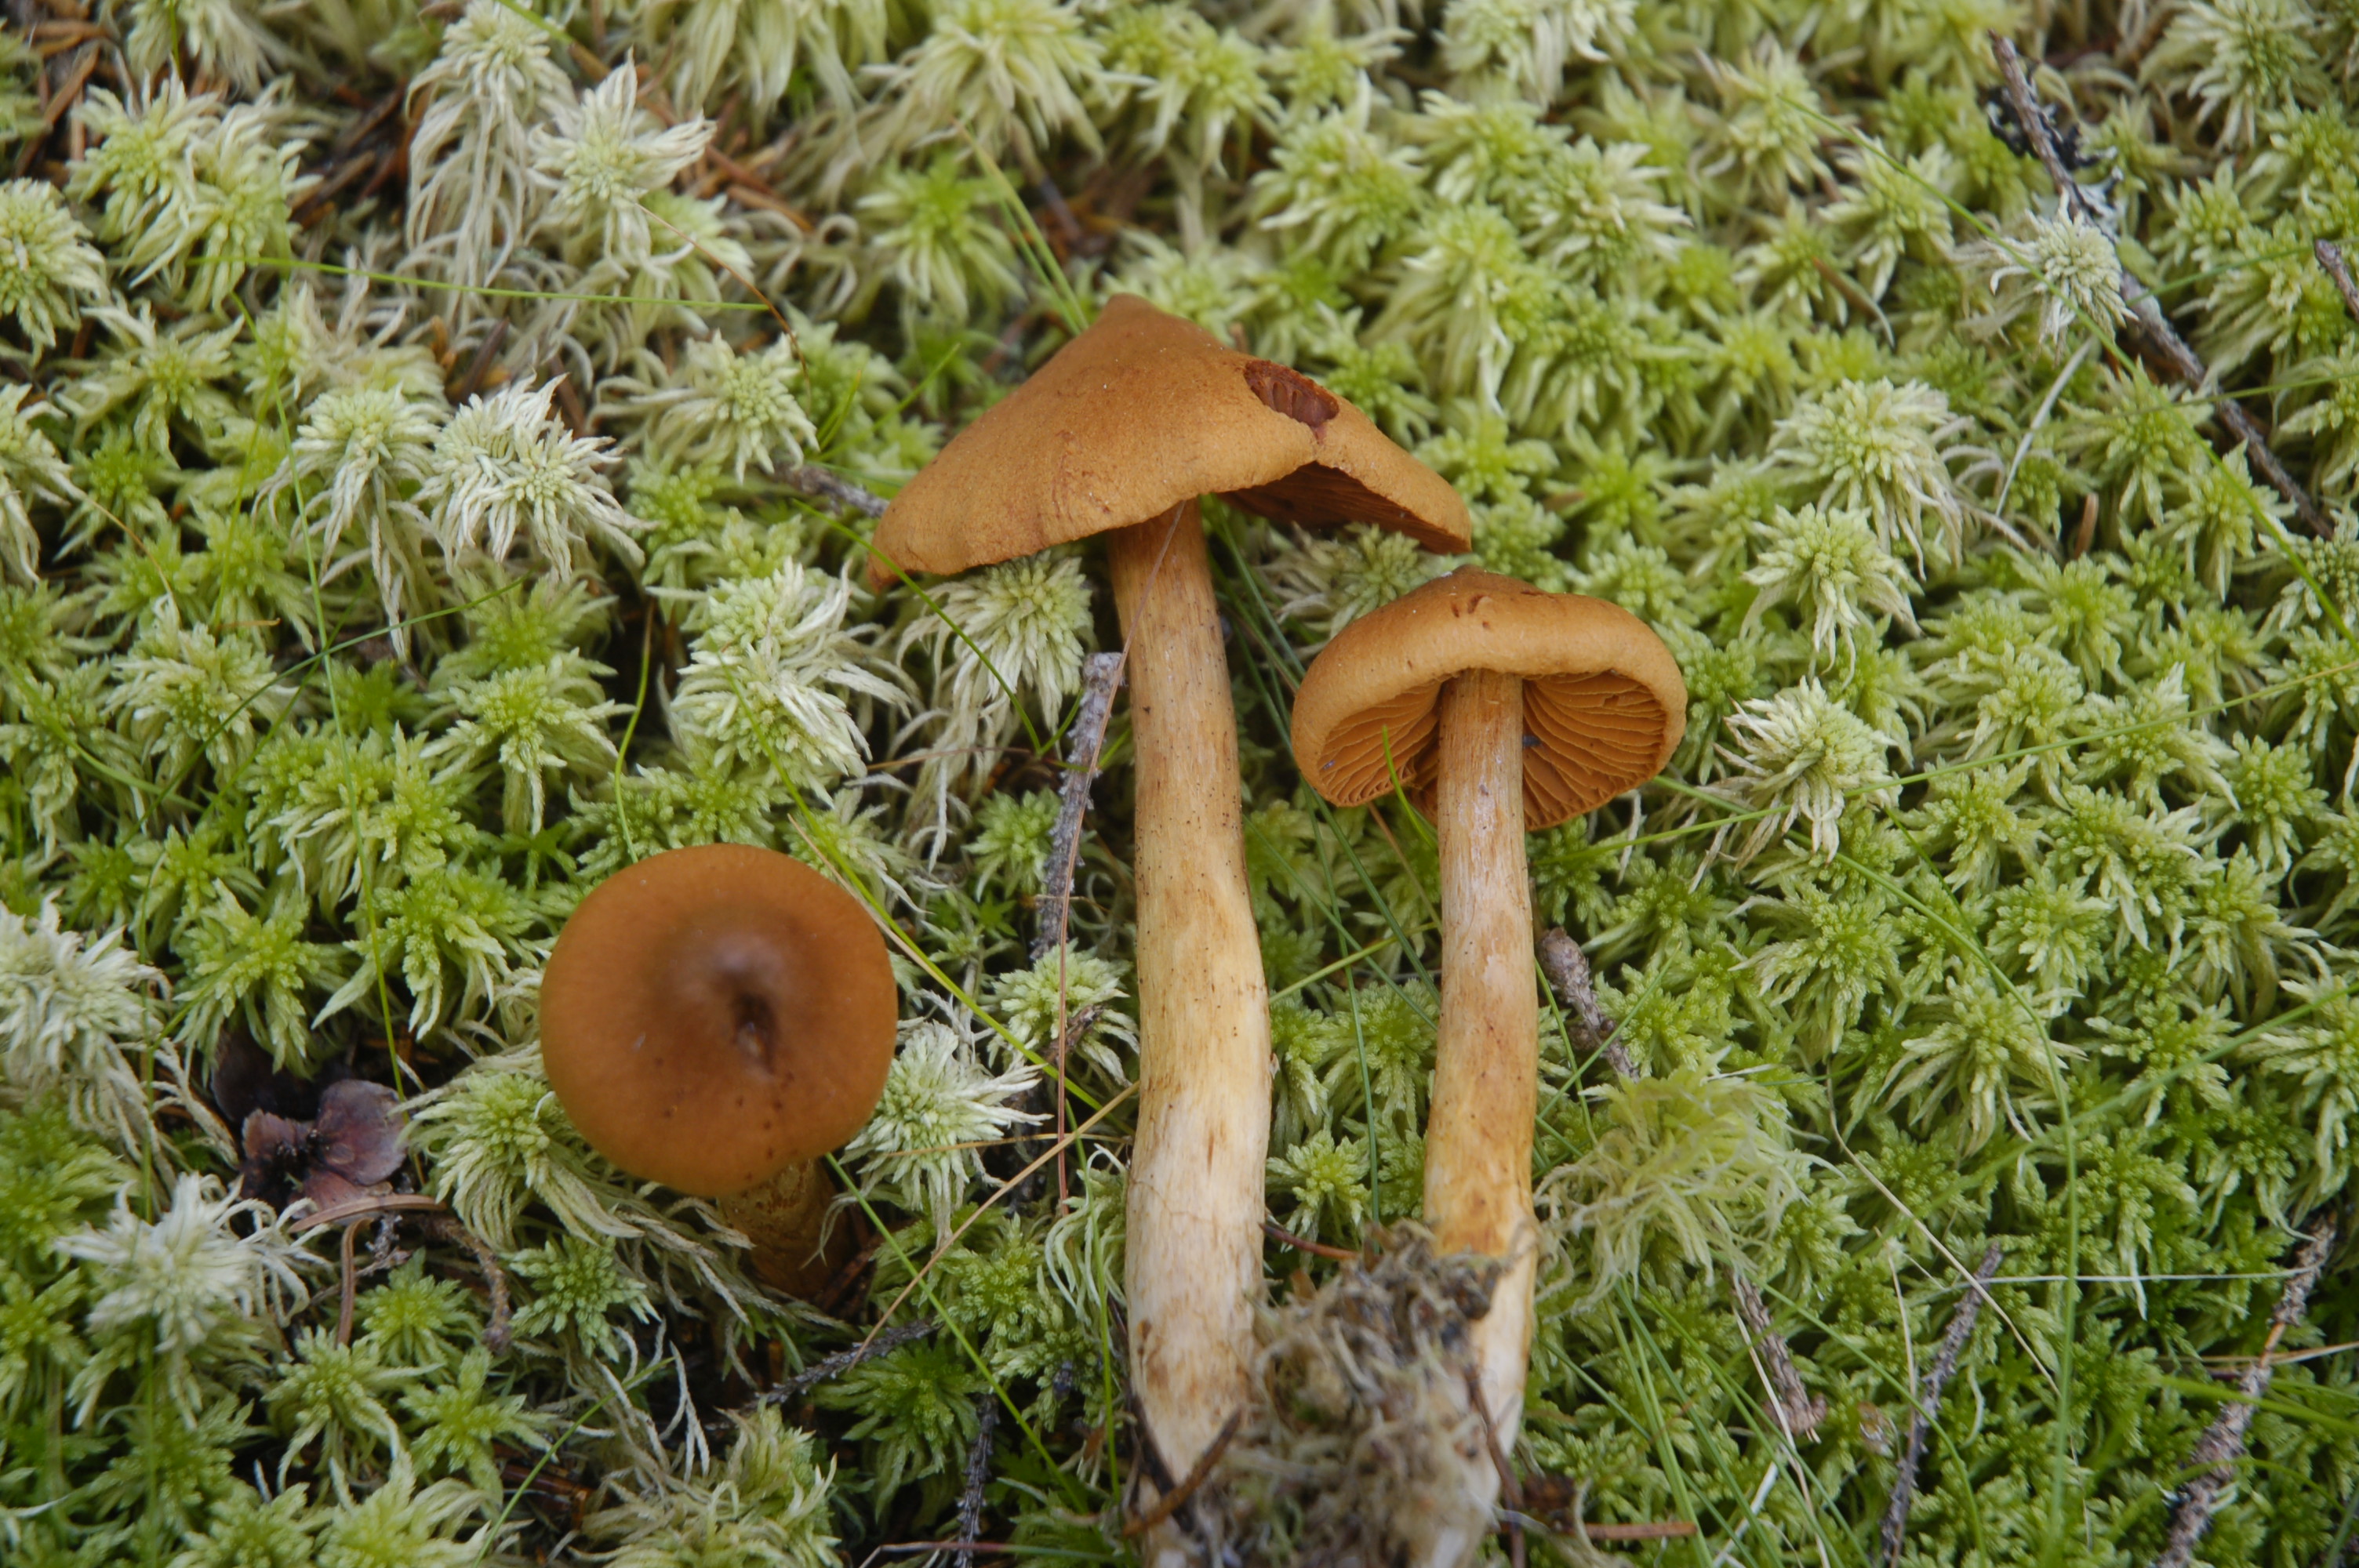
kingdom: Fungi
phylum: Basidiomycota
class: Agaricomycetes
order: Agaricales
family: Cortinariaceae
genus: Cortinarius
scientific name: Cortinarius rubellus
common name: Deadly webcap
